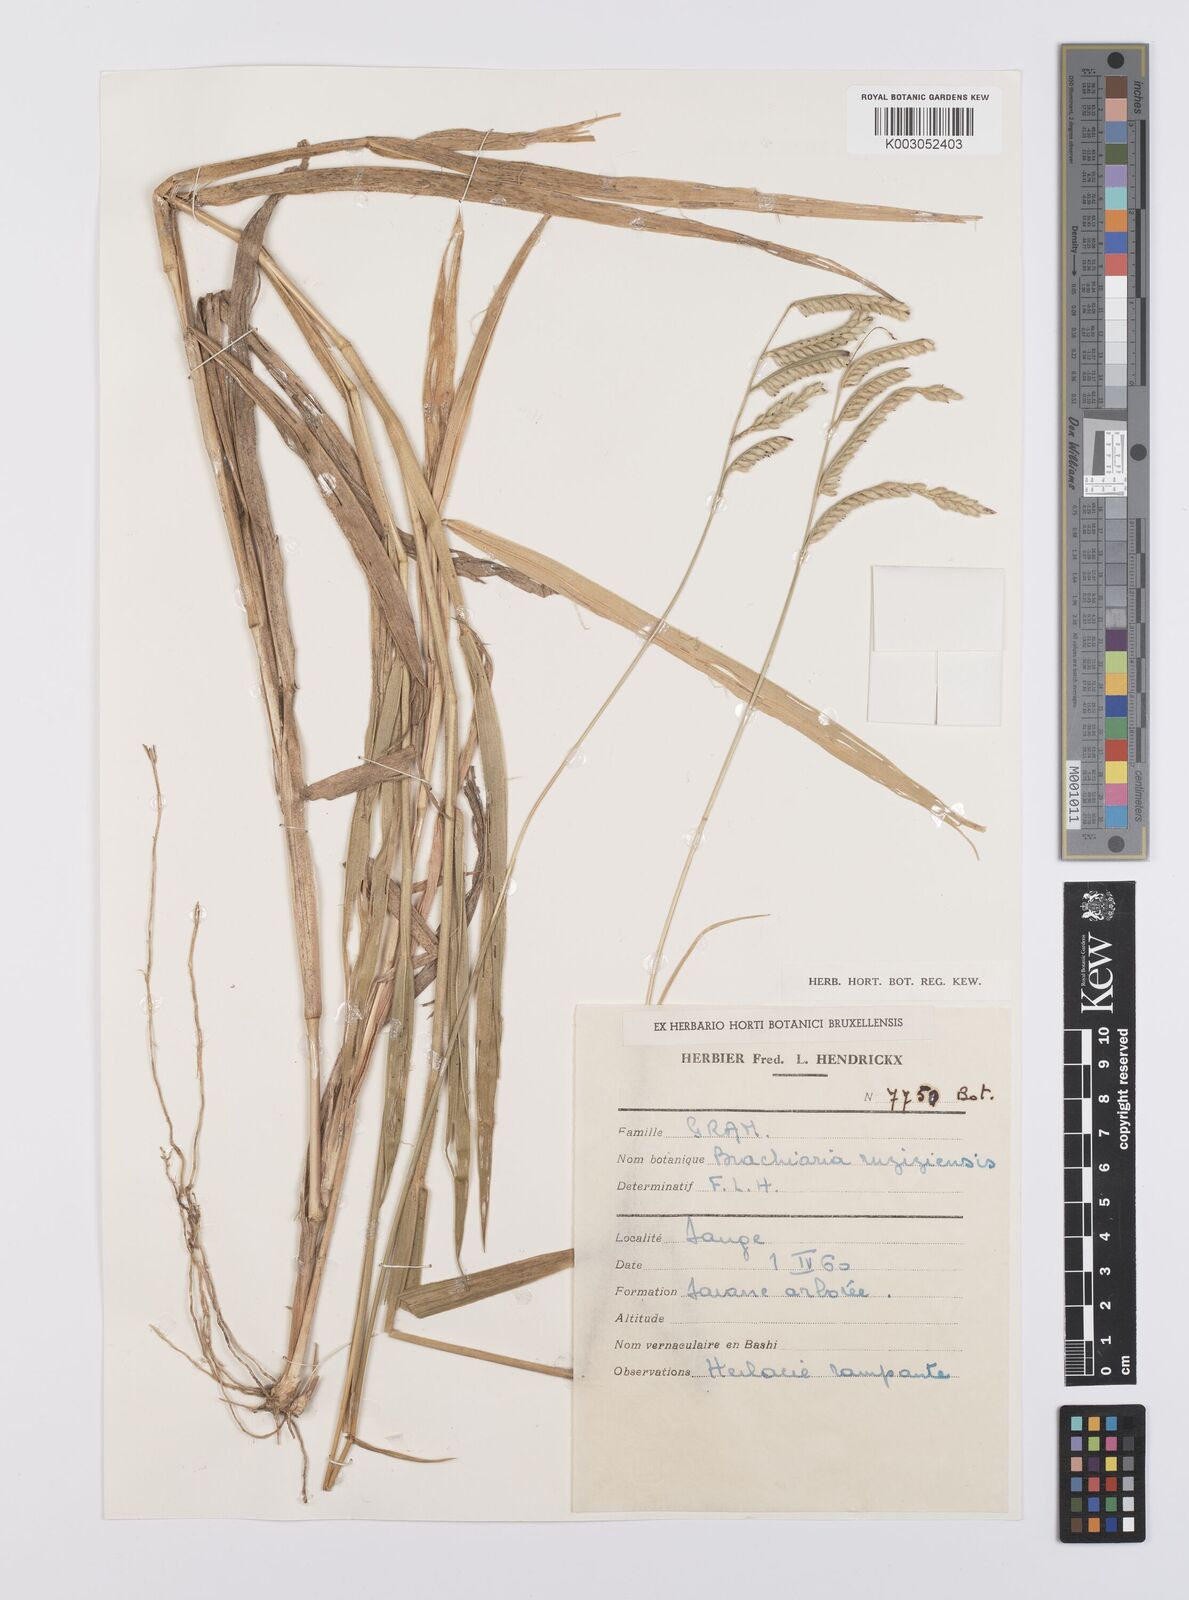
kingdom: Plantae
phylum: Tracheophyta
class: Liliopsida
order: Poales
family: Poaceae
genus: Urochloa
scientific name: Urochloa eminii
